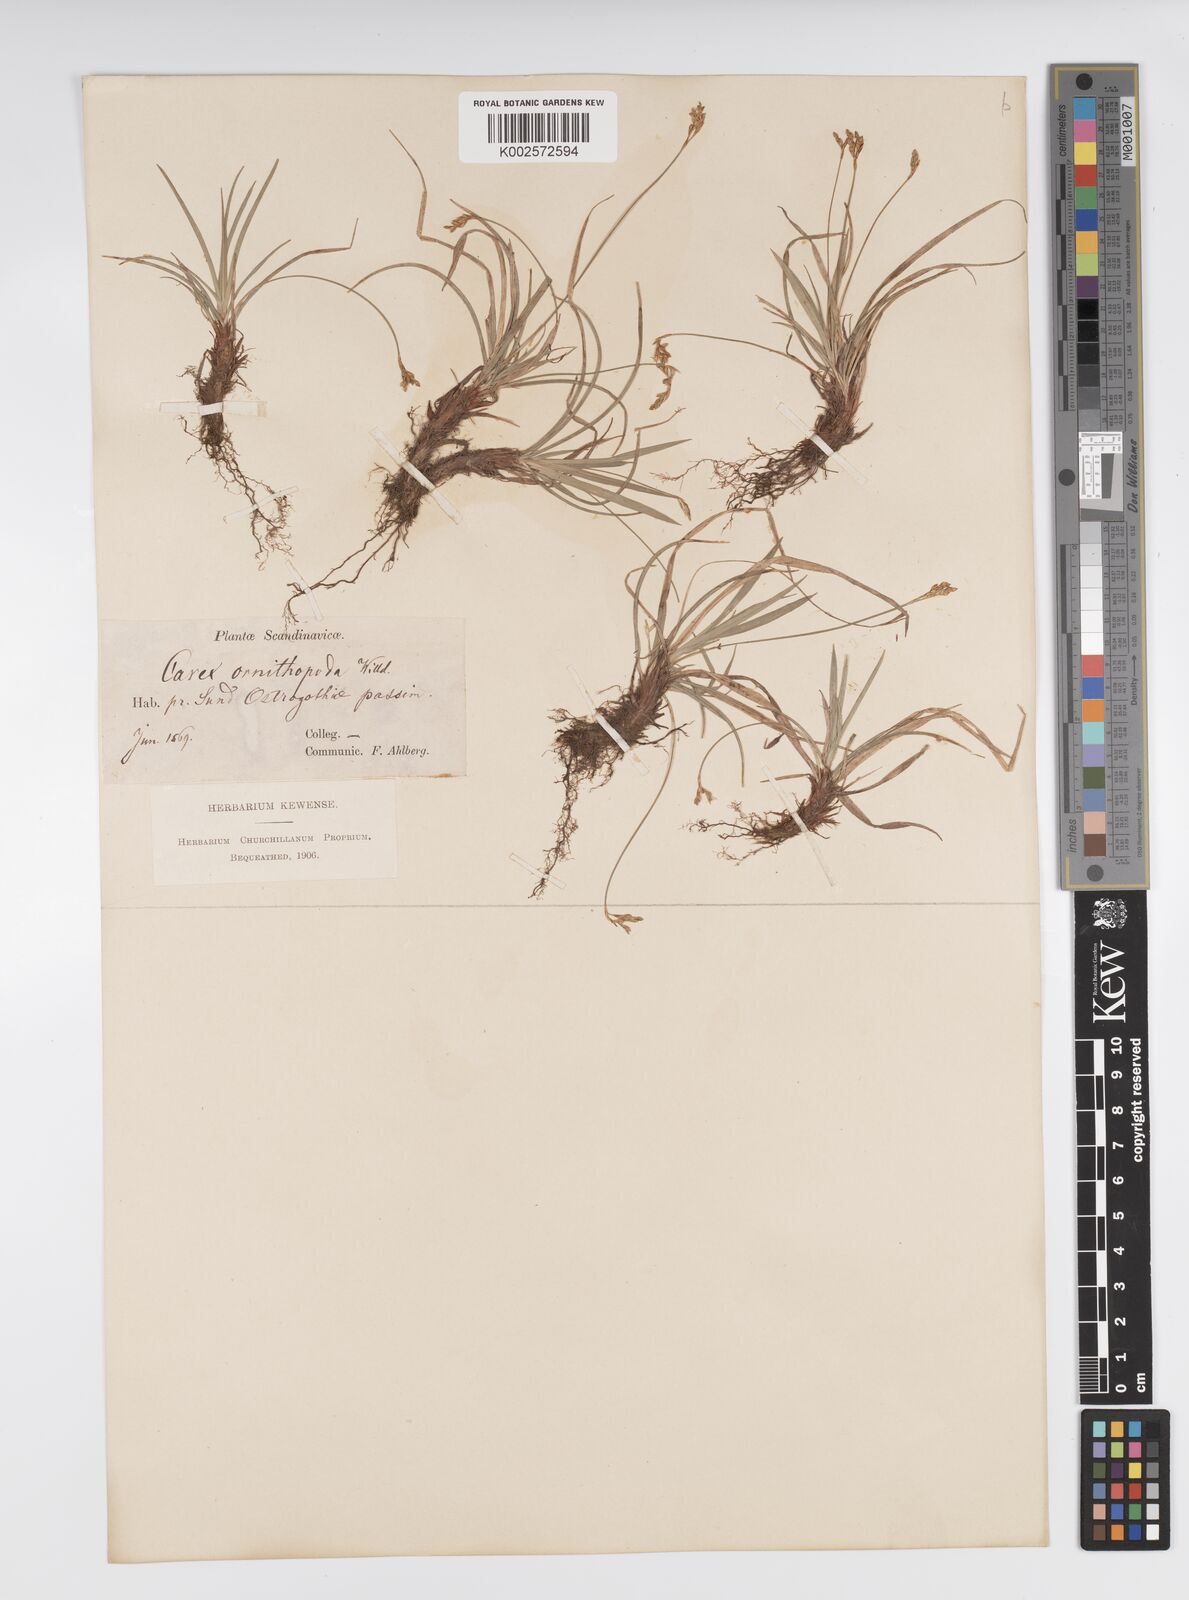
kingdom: Plantae
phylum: Tracheophyta
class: Liliopsida
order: Poales
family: Cyperaceae
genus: Carex
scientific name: Carex ornithopoda
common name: Bird's-foot sedge
